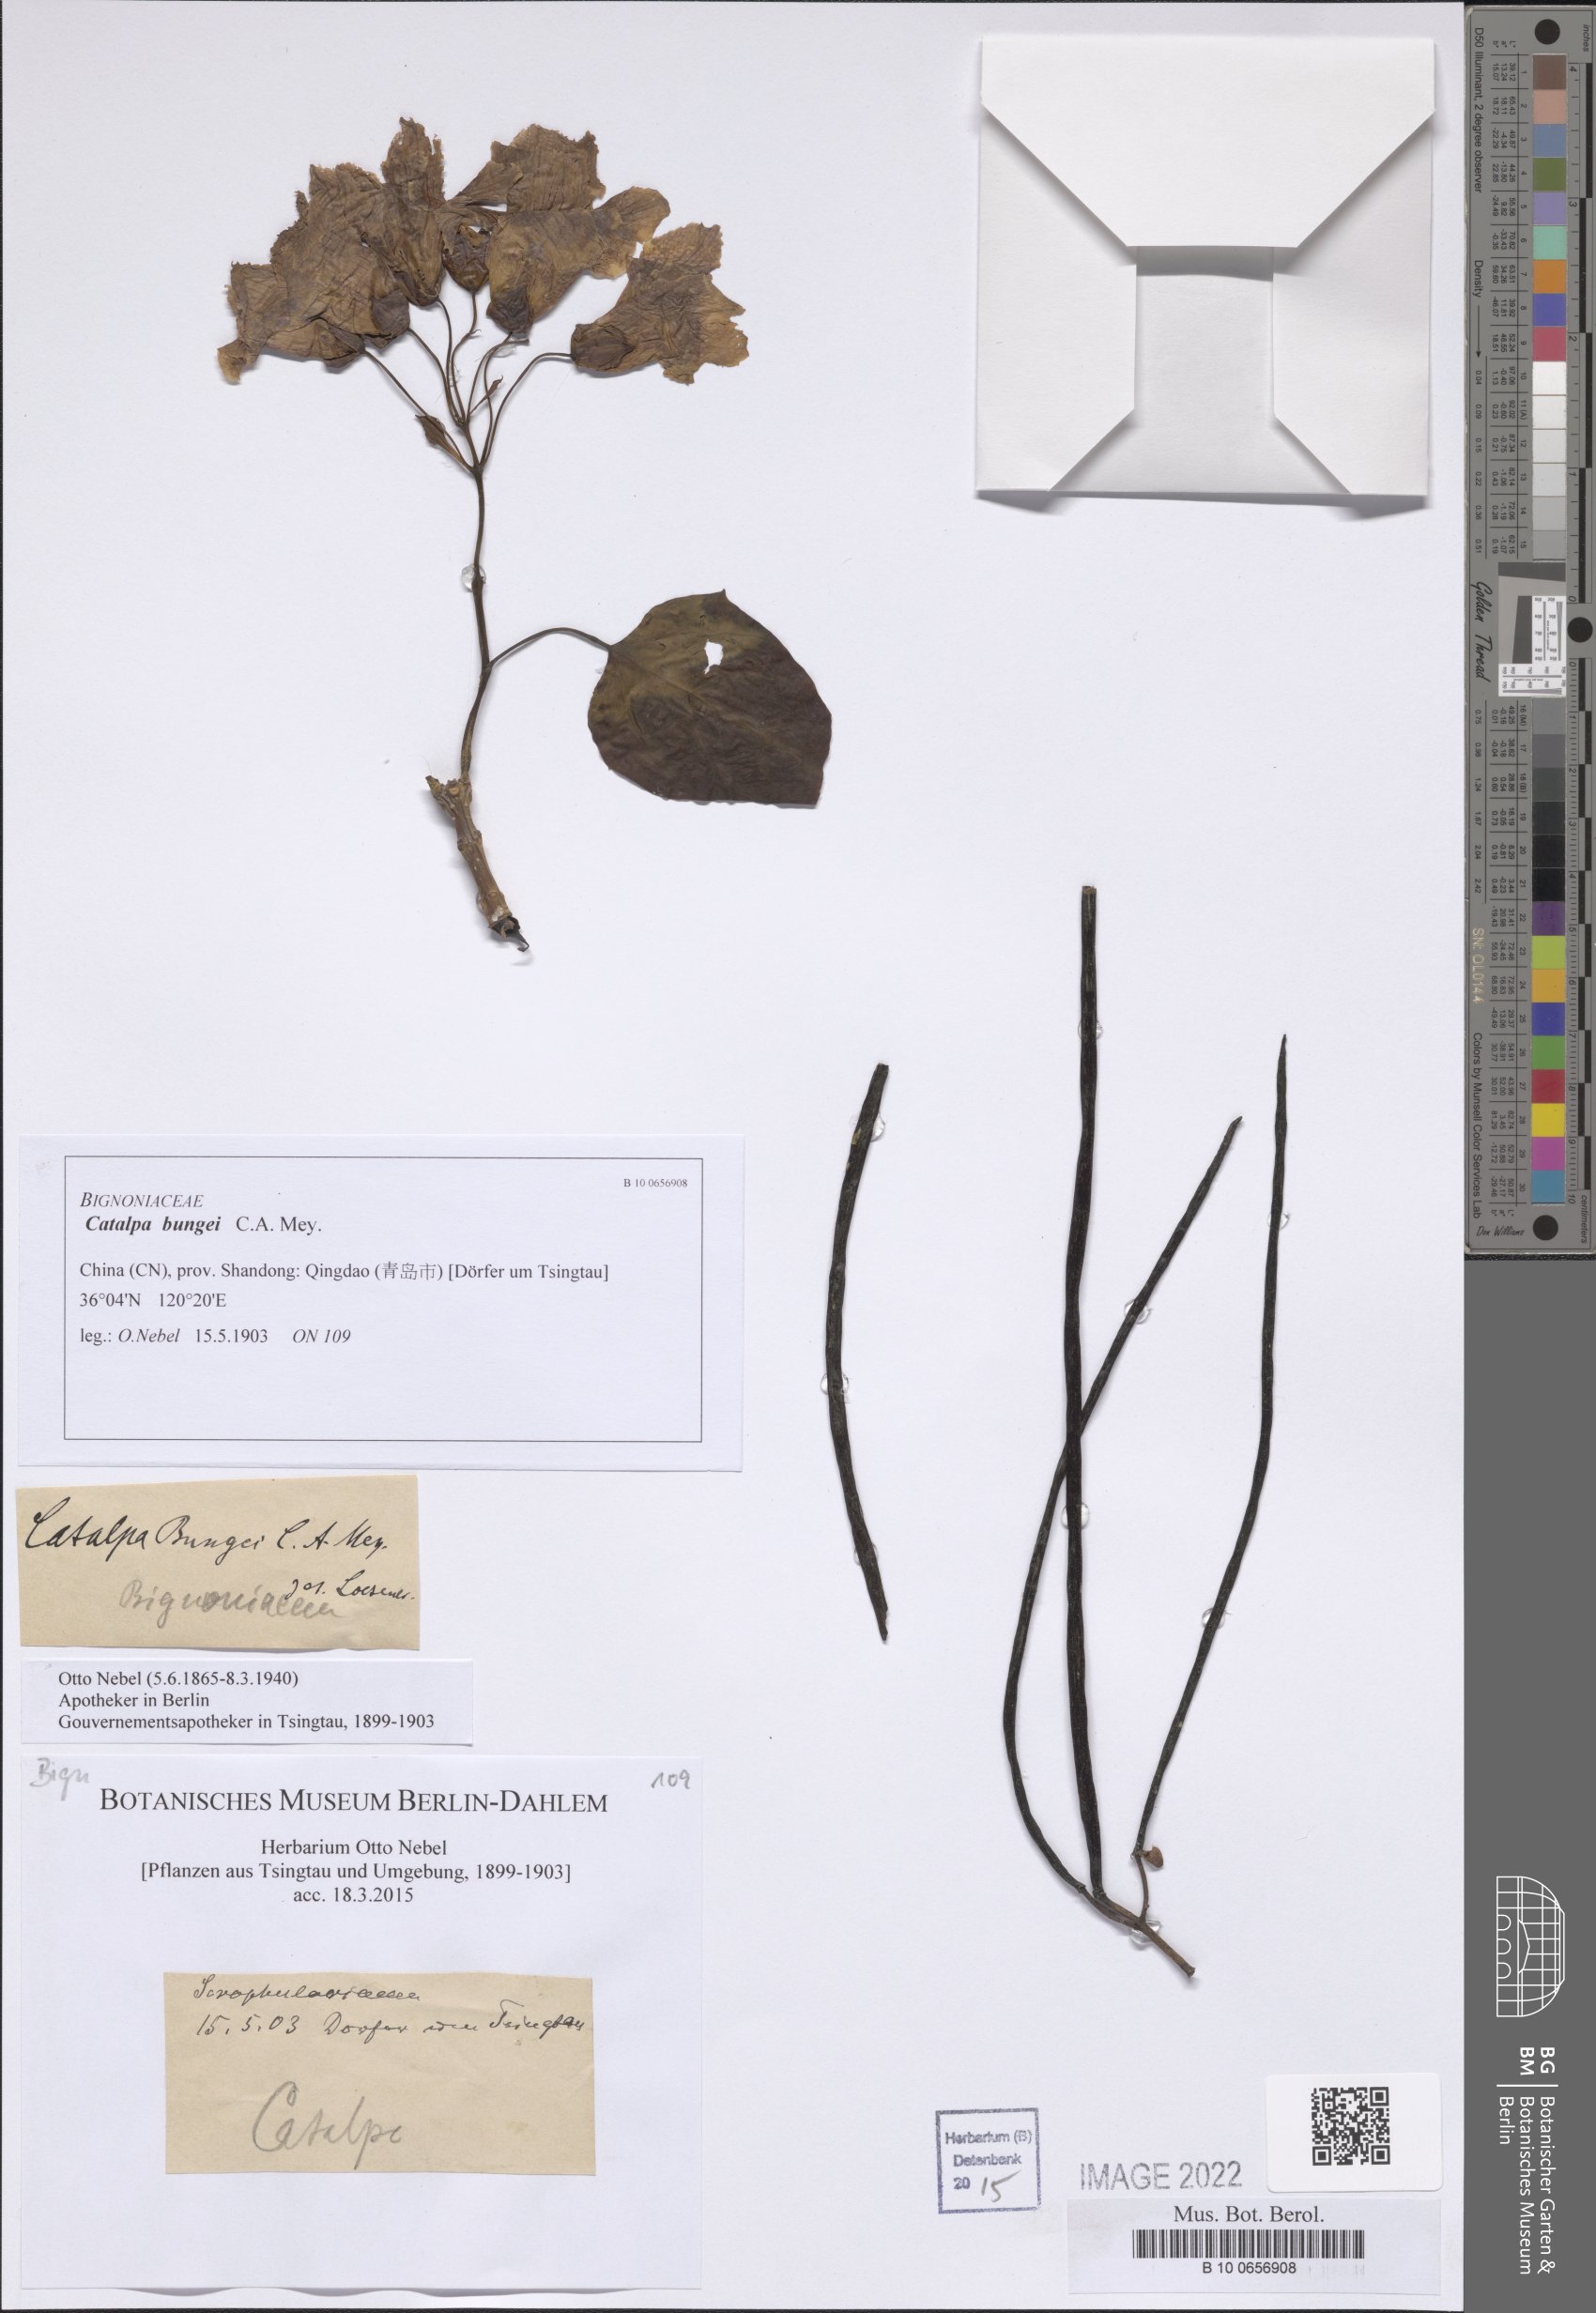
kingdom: Plantae
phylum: Tracheophyta
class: Magnoliopsida
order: Lamiales
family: Bignoniaceae
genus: Catalpa
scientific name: Catalpa bungei
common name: Manchurian catalpa
